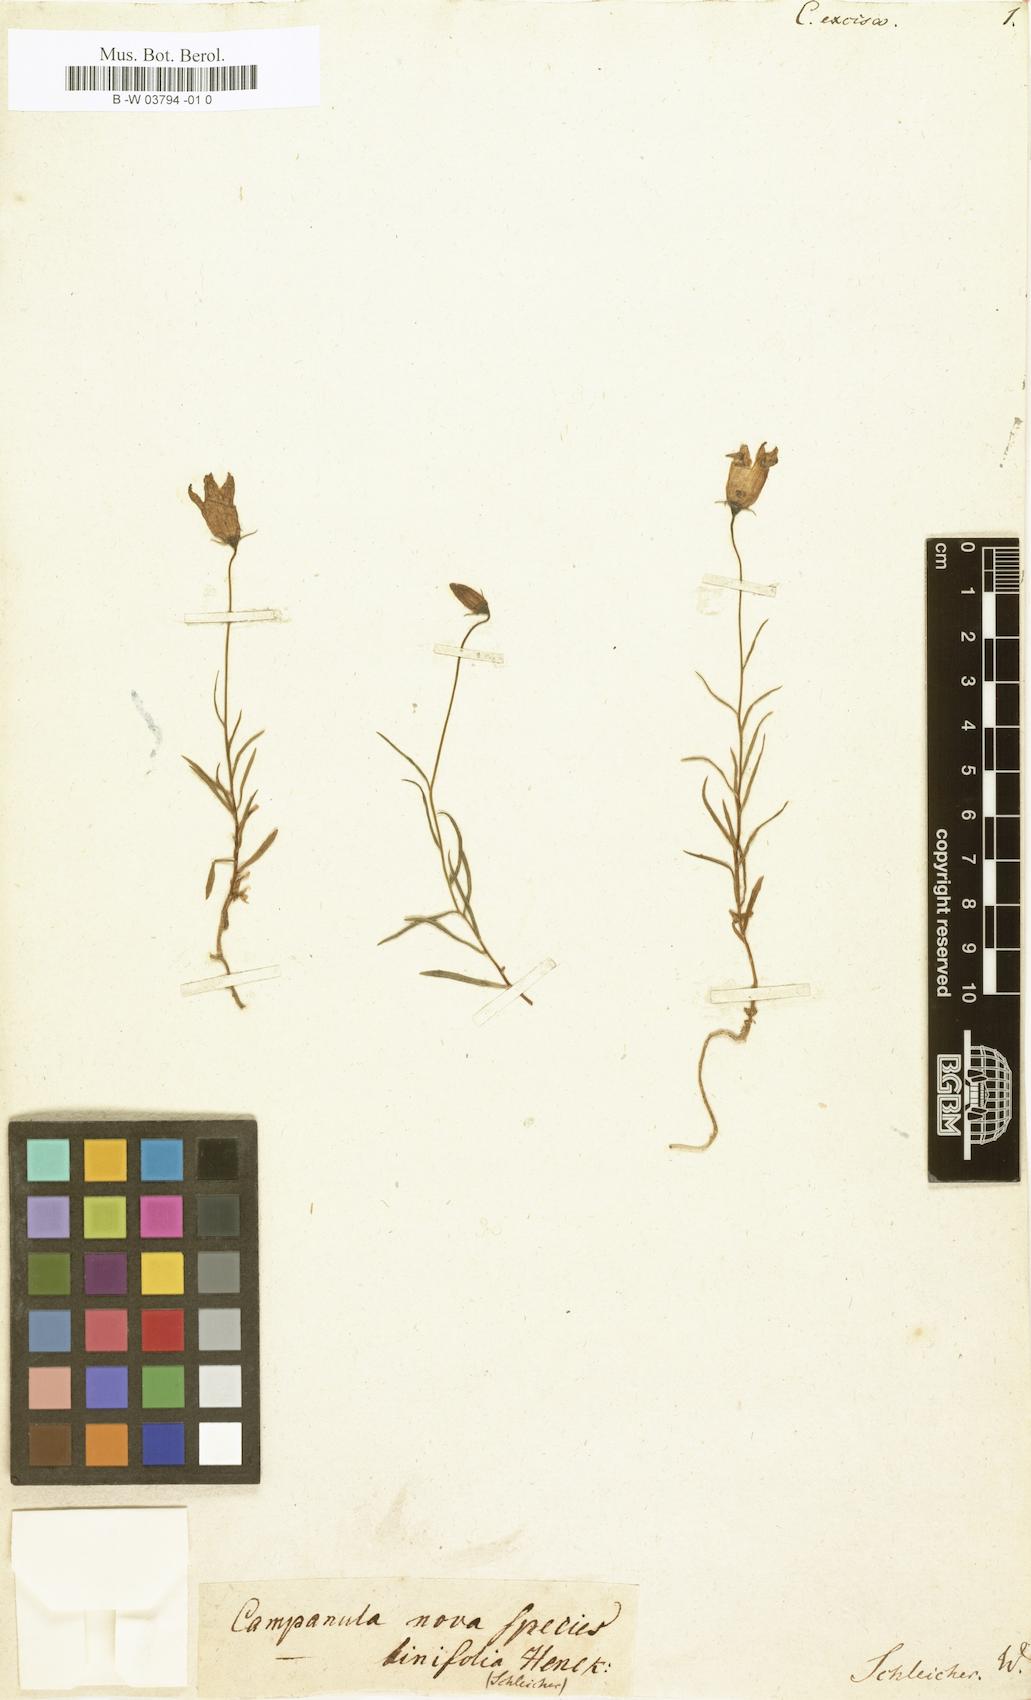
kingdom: Plantae
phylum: Tracheophyta
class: Magnoliopsida
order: Asterales
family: Campanulaceae
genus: Campanula
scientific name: Campanula excisa
